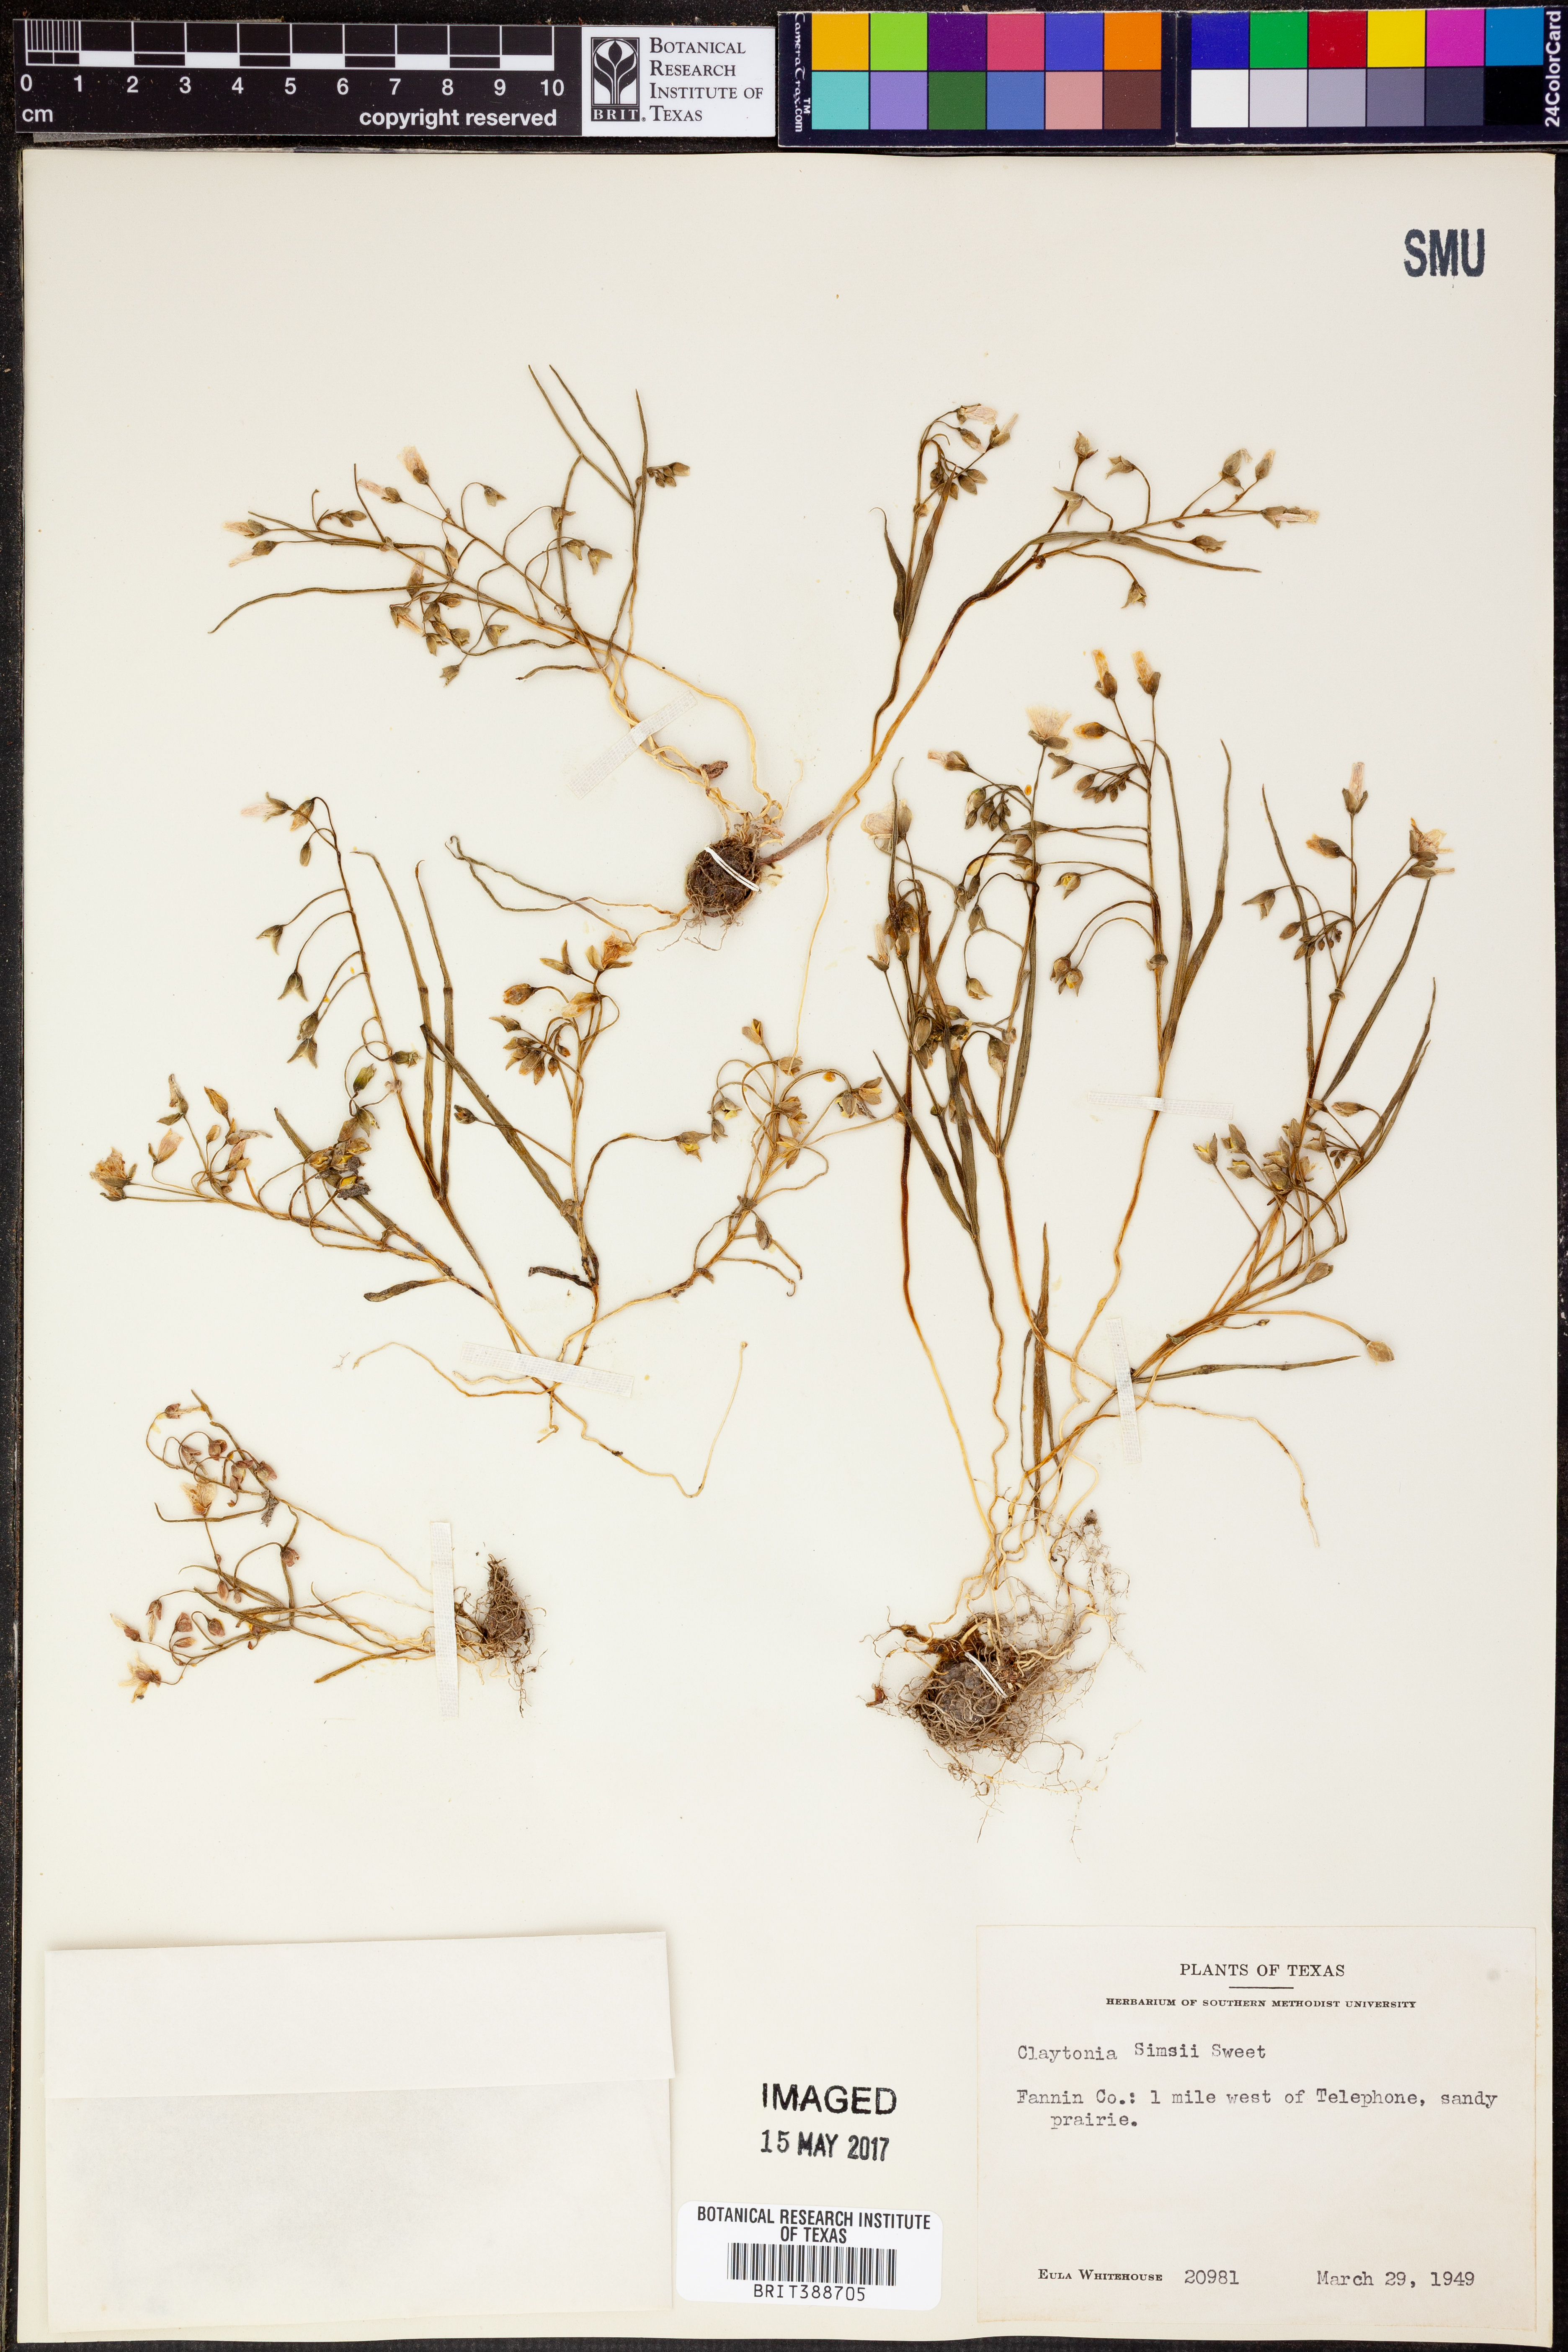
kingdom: Plantae
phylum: Tracheophyta
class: Magnoliopsida
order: Caryophyllales
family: Montiaceae
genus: Claytonia
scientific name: Claytonia virginica
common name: Virginia springbeauty
